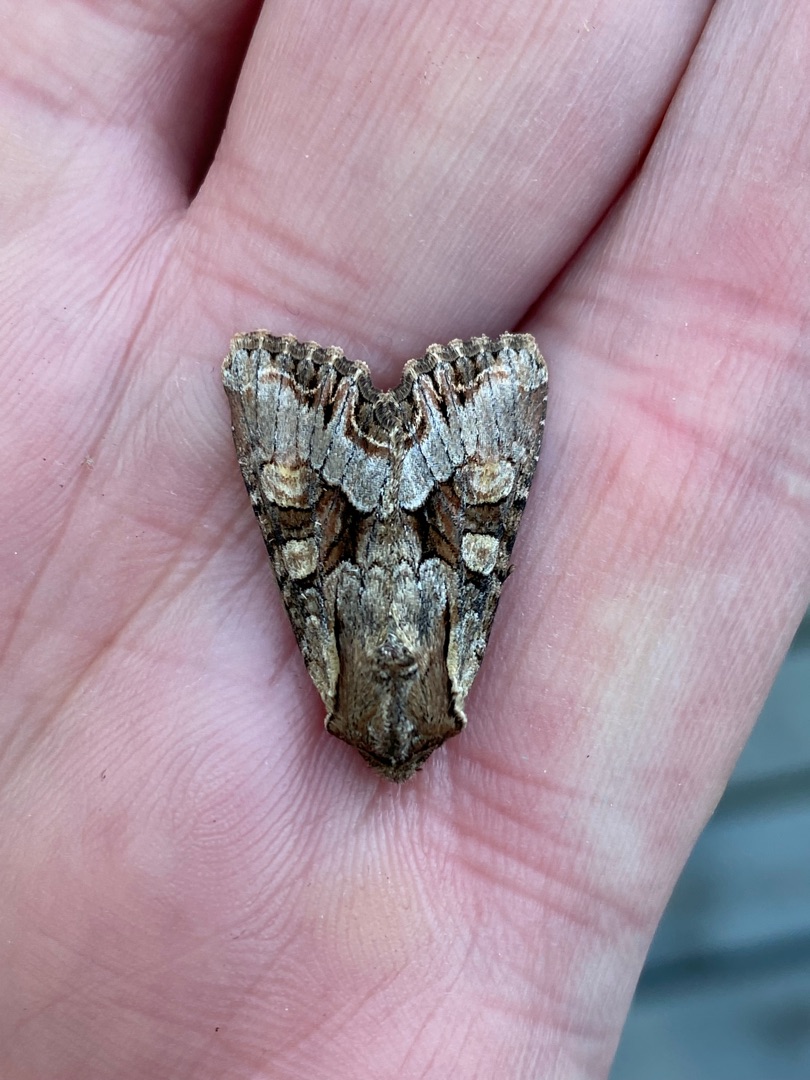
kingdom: Animalia
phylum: Arthropoda
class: Insecta
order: Lepidoptera
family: Noctuidae
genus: Lacanobia
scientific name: Lacanobia w-latinum
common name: W-grønsagsugle
